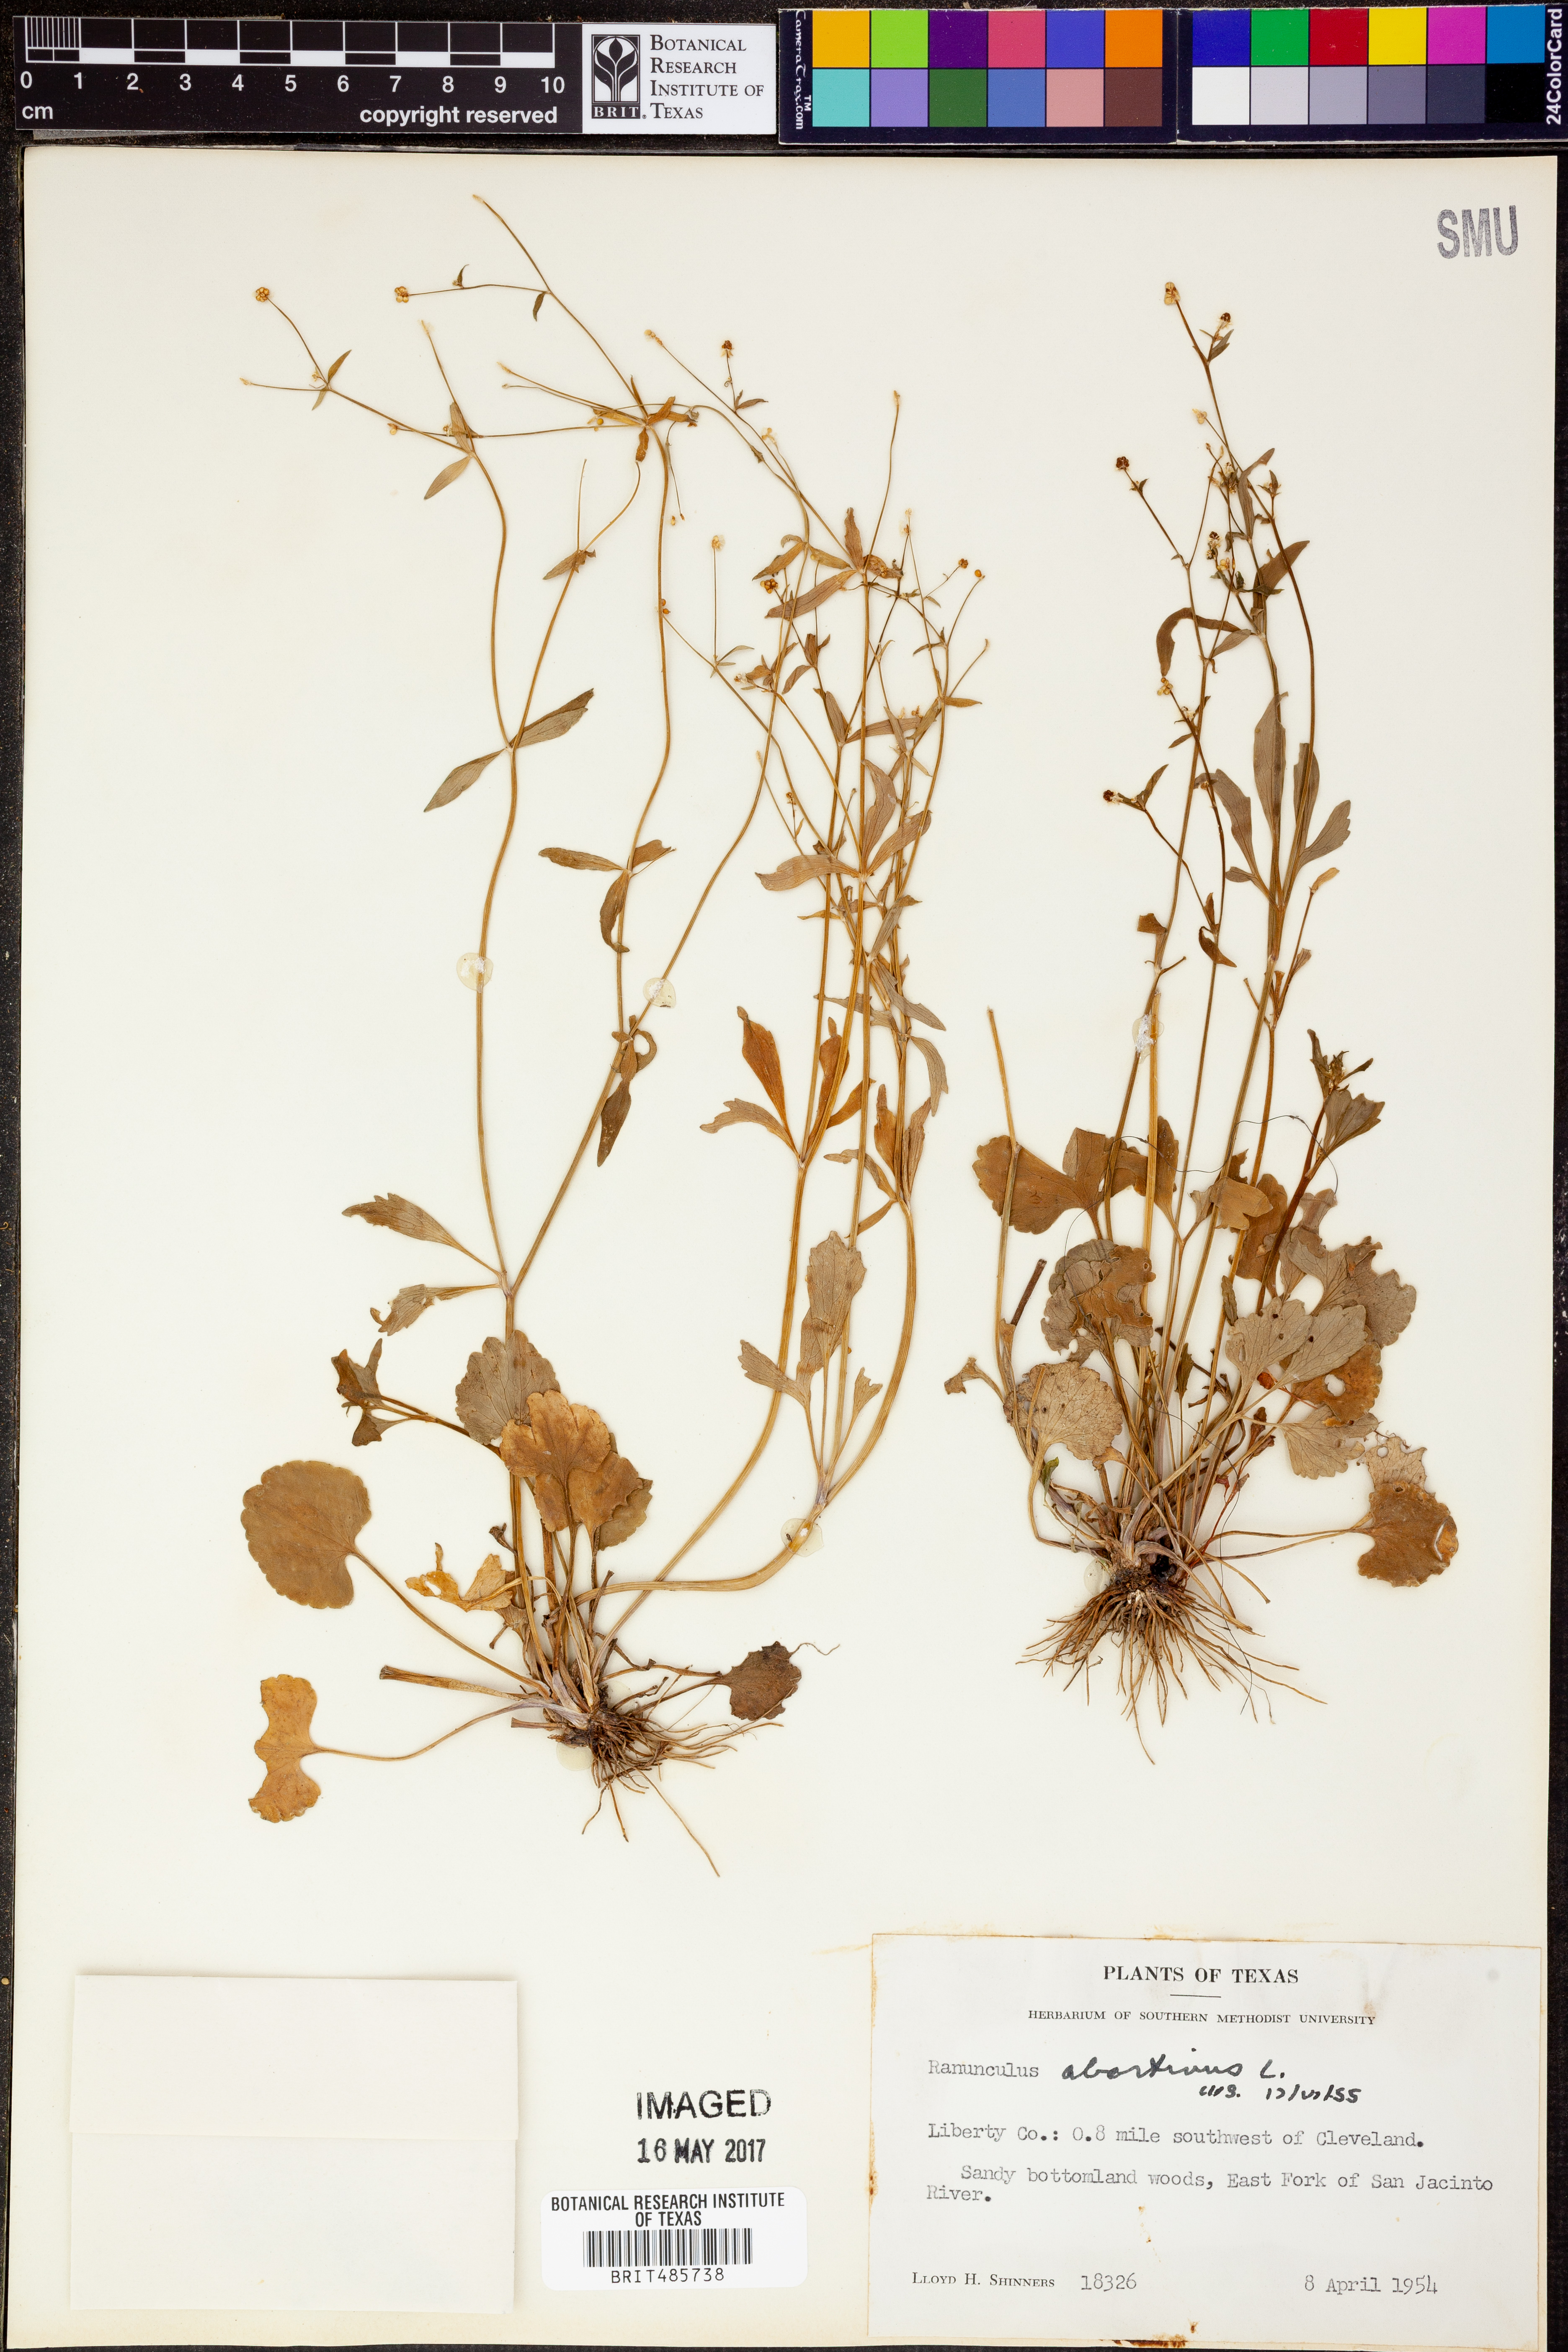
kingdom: Plantae
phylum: Tracheophyta
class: Magnoliopsida
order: Ranunculales
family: Ranunculaceae
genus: Ranunculus
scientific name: Ranunculus abortivus
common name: Early wood buttercup
